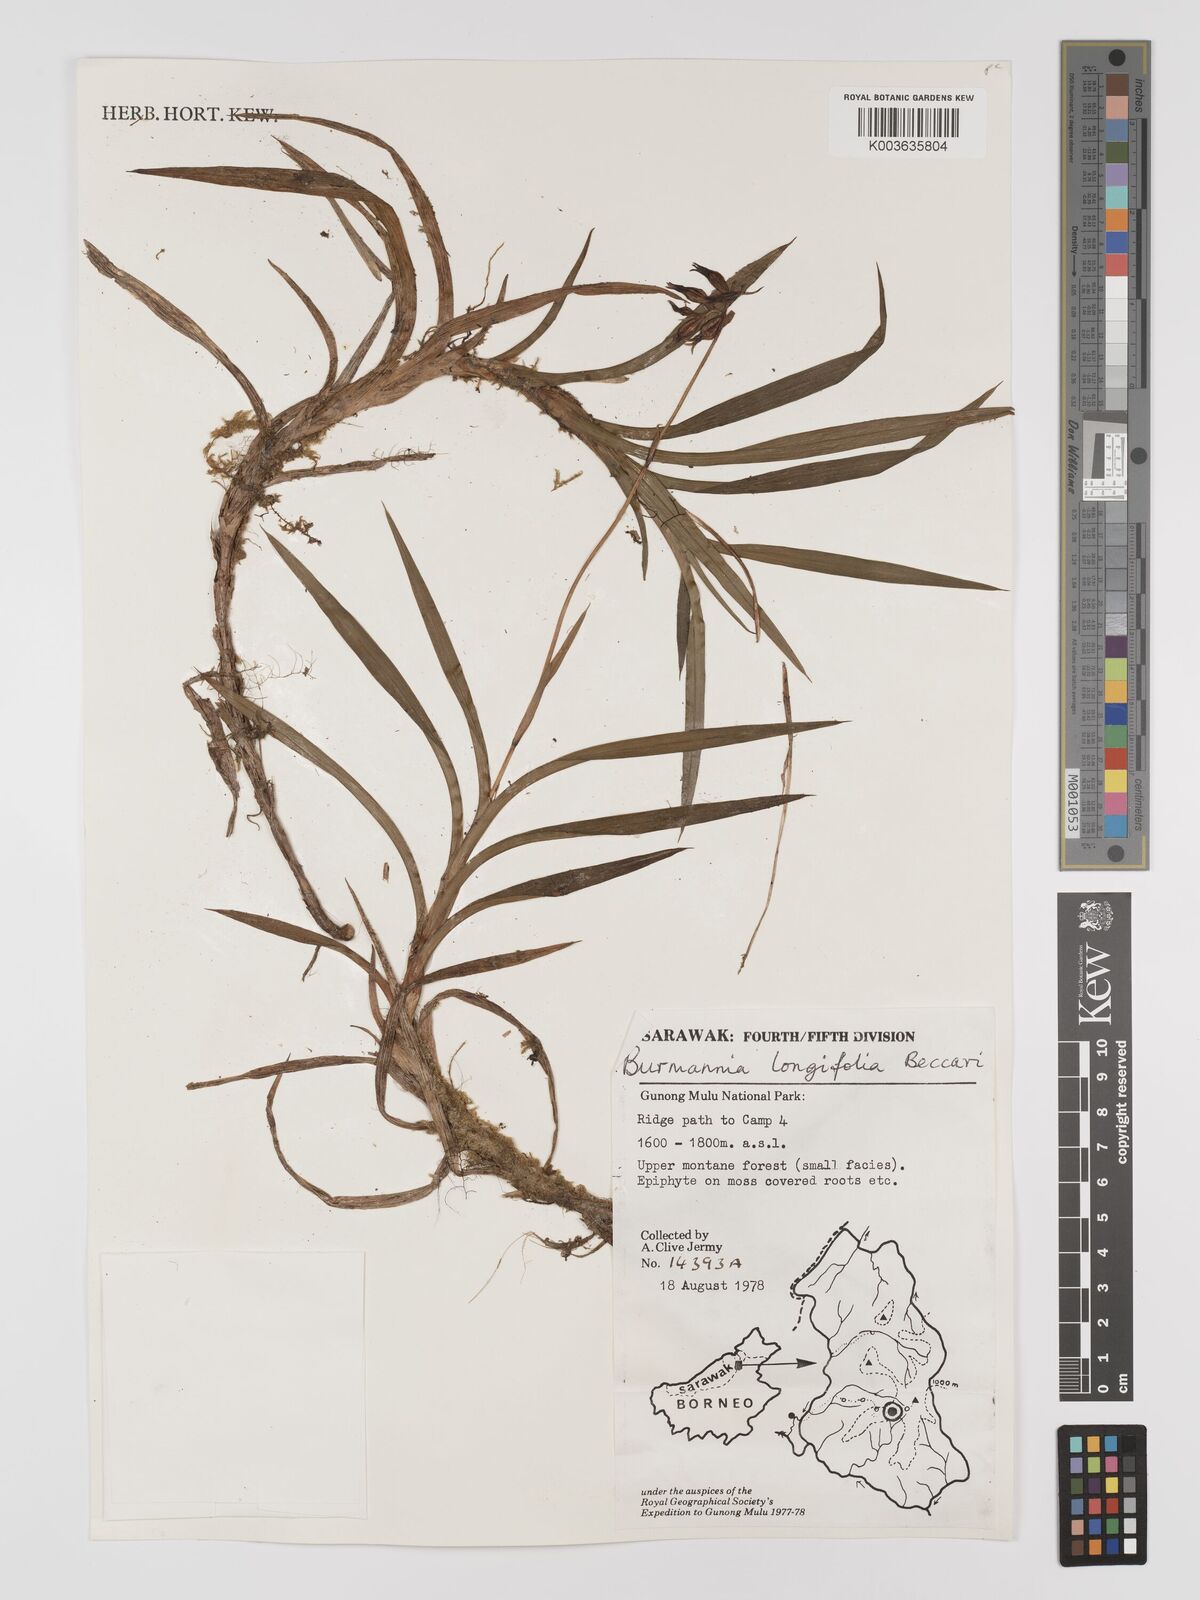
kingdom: Plantae
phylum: Tracheophyta
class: Liliopsida
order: Dioscoreales
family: Burmanniaceae
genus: Burmannia
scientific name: Burmannia longifolia
